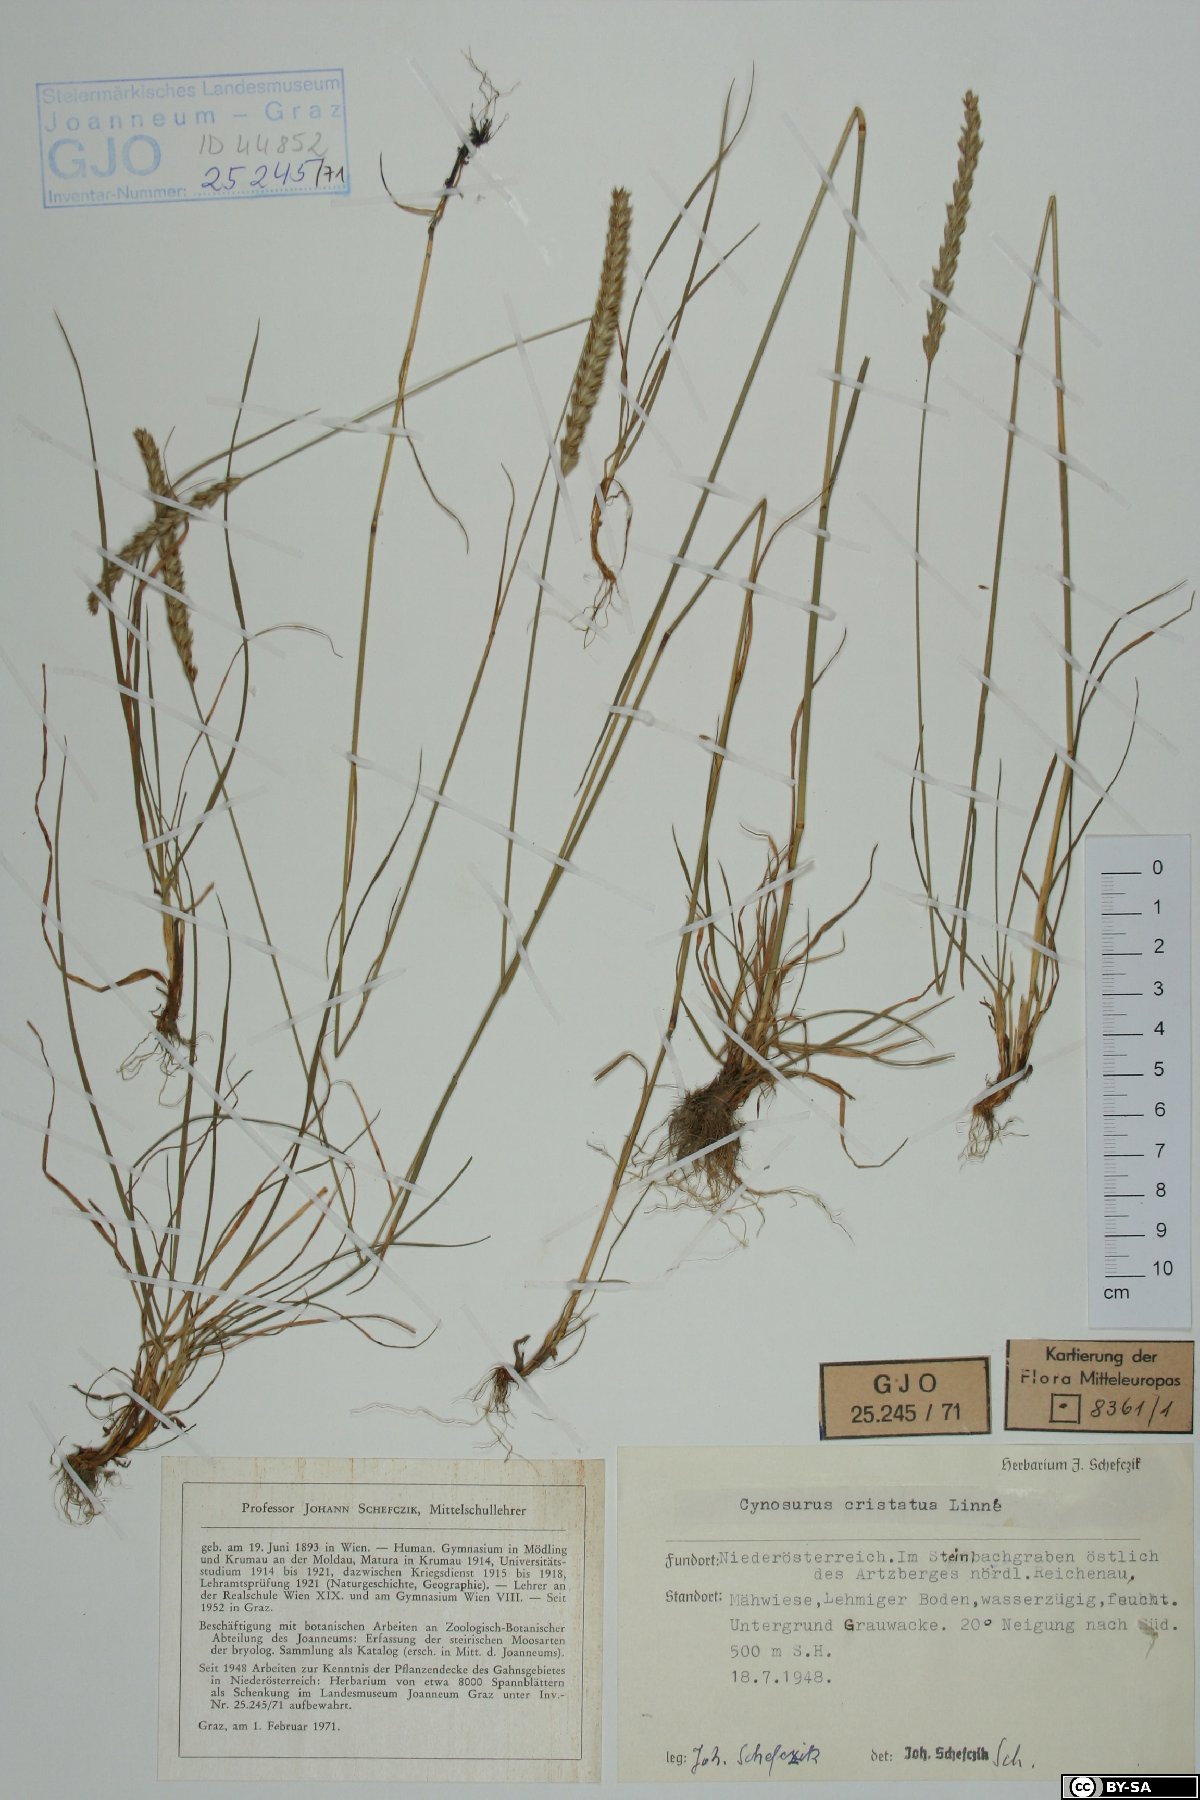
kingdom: Plantae
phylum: Tracheophyta
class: Liliopsida
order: Poales
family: Poaceae
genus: Cynosurus
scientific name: Cynosurus cristatus
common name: Crested dog's-tail
